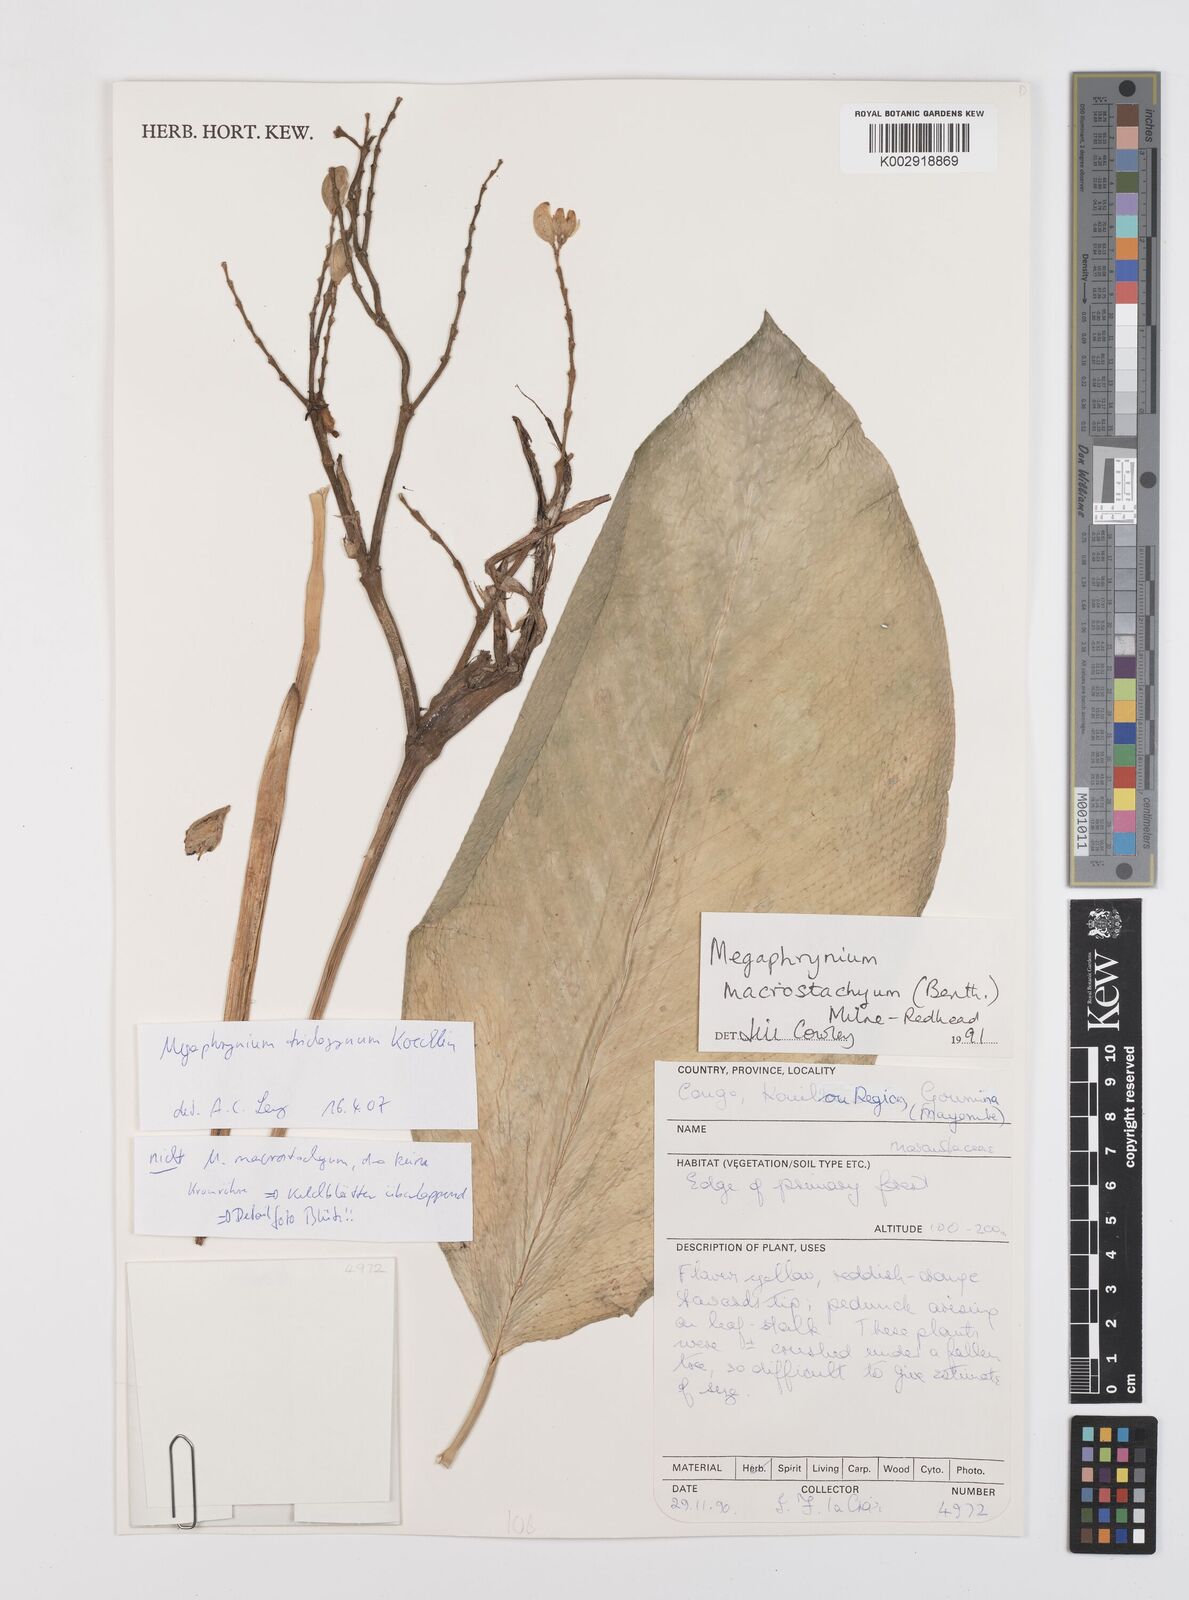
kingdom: Plantae
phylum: Tracheophyta
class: Liliopsida
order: Zingiberales
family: Marantaceae
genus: Megaphrynium
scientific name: Megaphrynium macrostachyum
